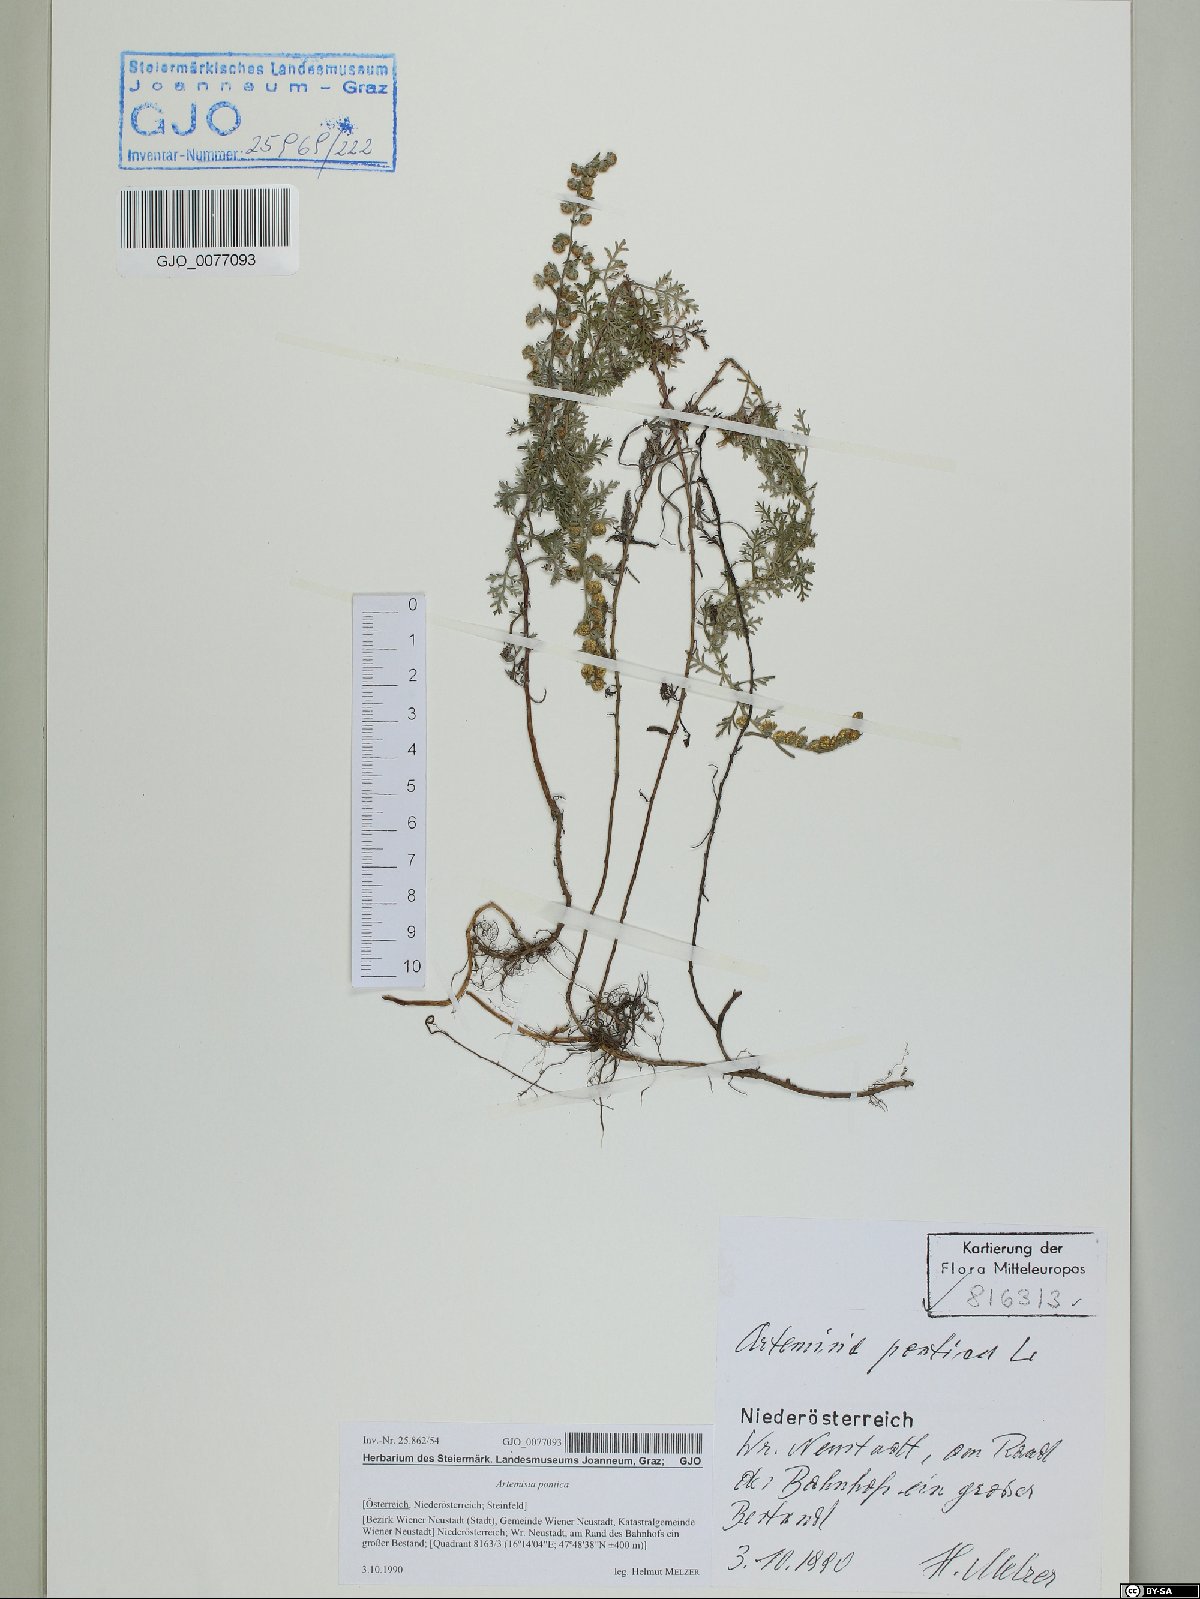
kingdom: Plantae
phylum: Tracheophyta
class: Magnoliopsida
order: Asterales
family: Asteraceae
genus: Artemisia
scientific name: Artemisia pontica
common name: Roman wormwood
